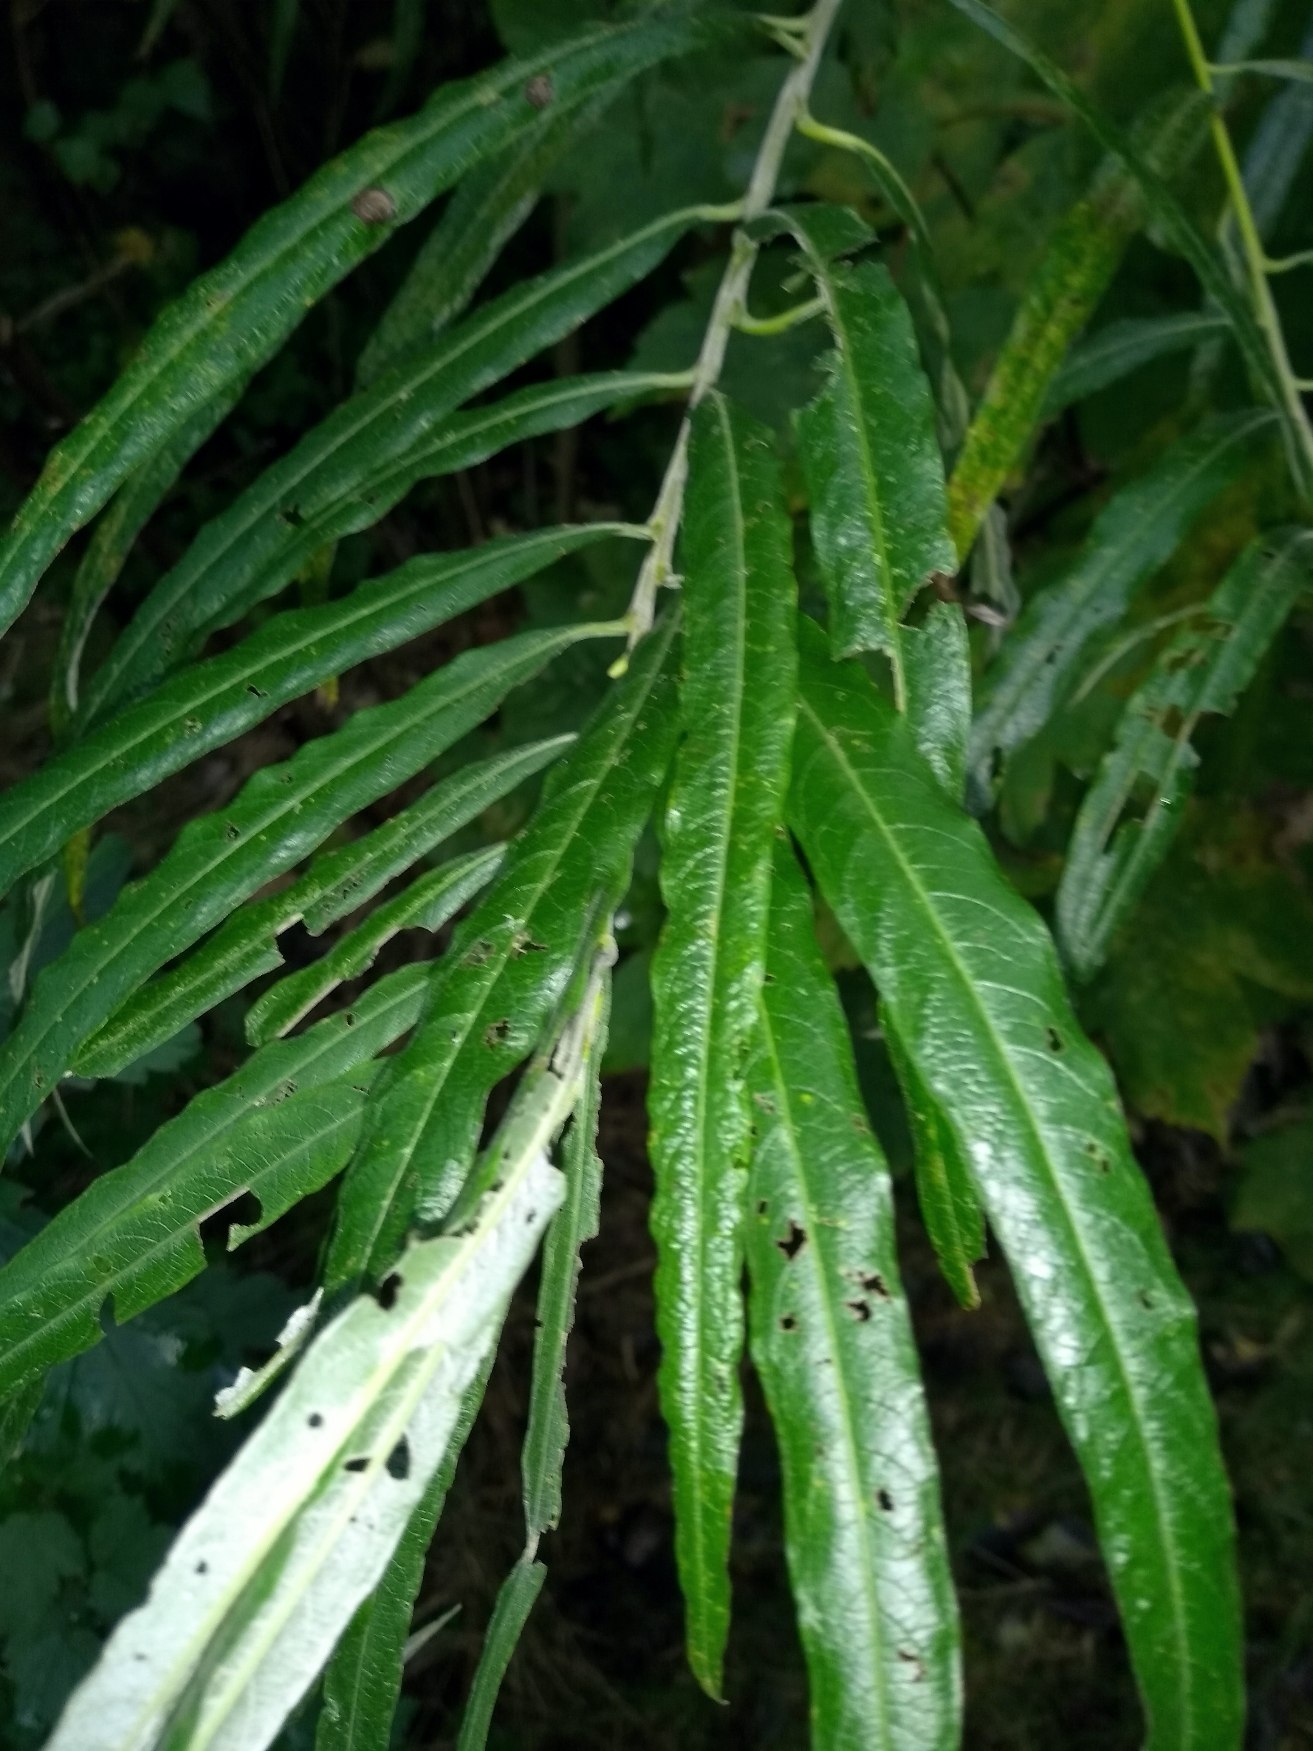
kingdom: Plantae
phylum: Tracheophyta
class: Magnoliopsida
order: Malpighiales
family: Salicaceae
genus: Salix
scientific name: Salix viminalis
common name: Bånd-pil
